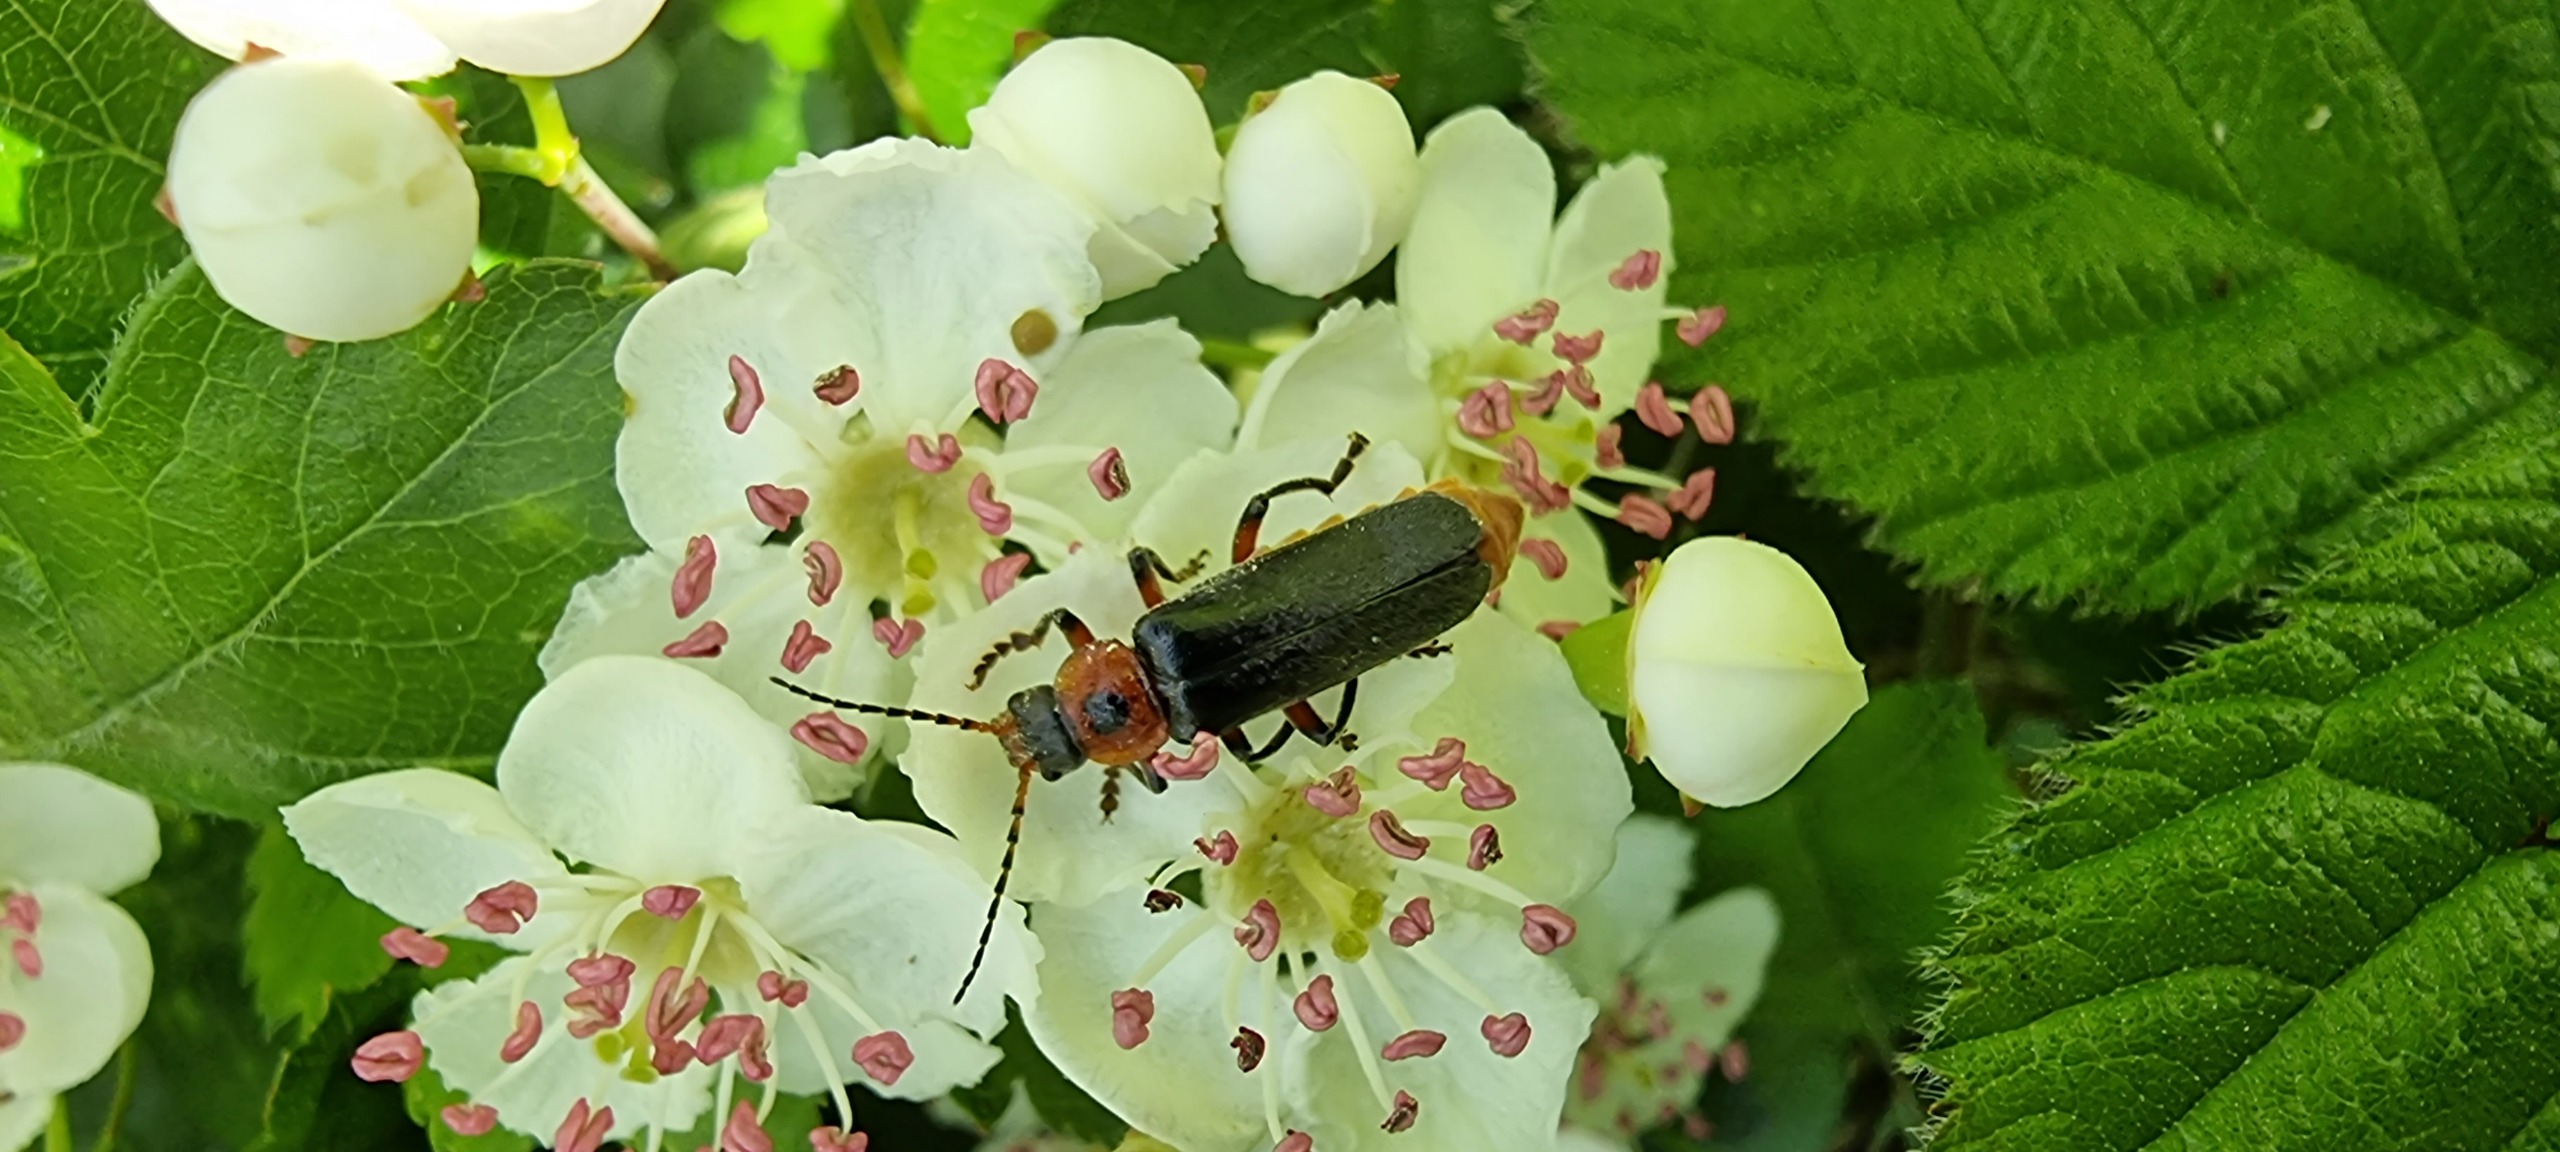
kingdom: Animalia
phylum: Arthropoda
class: Insecta
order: Coleoptera
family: Cantharidae
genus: Cantharis
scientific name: Cantharis rustica
